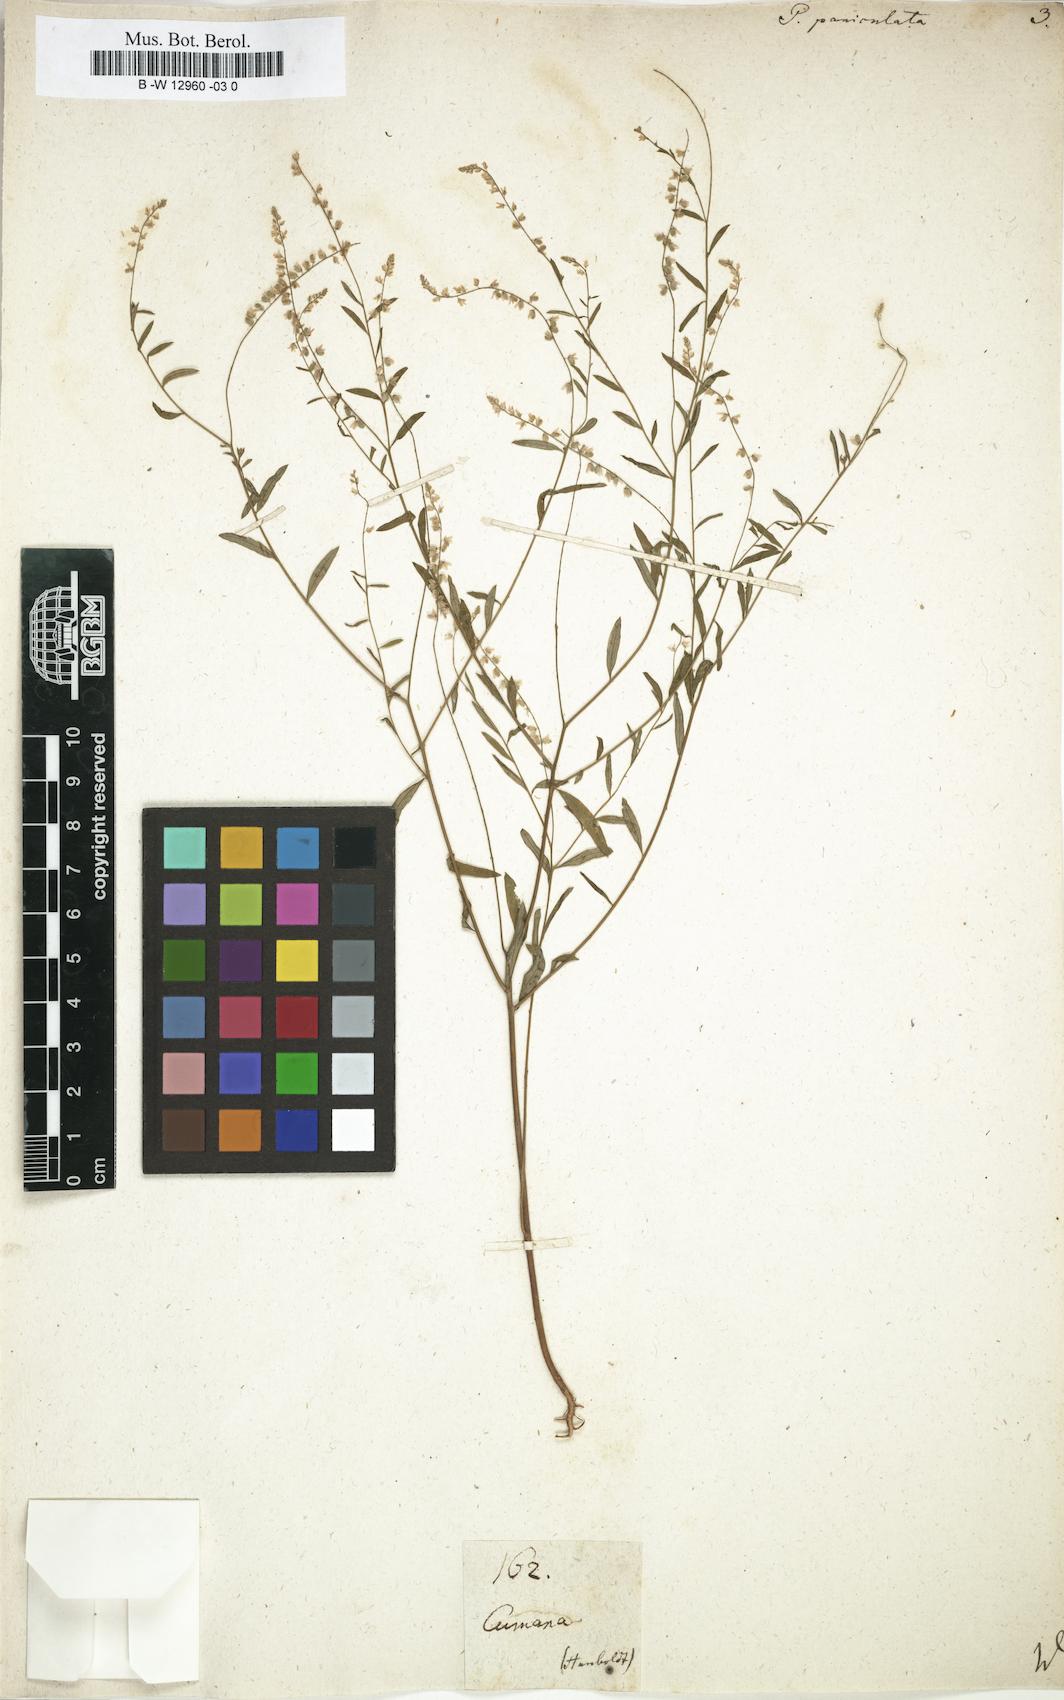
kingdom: Plantae
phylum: Tracheophyta
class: Magnoliopsida
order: Fabales
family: Polygalaceae
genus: Polygala
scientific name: Polygala paniculata
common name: Orosne
